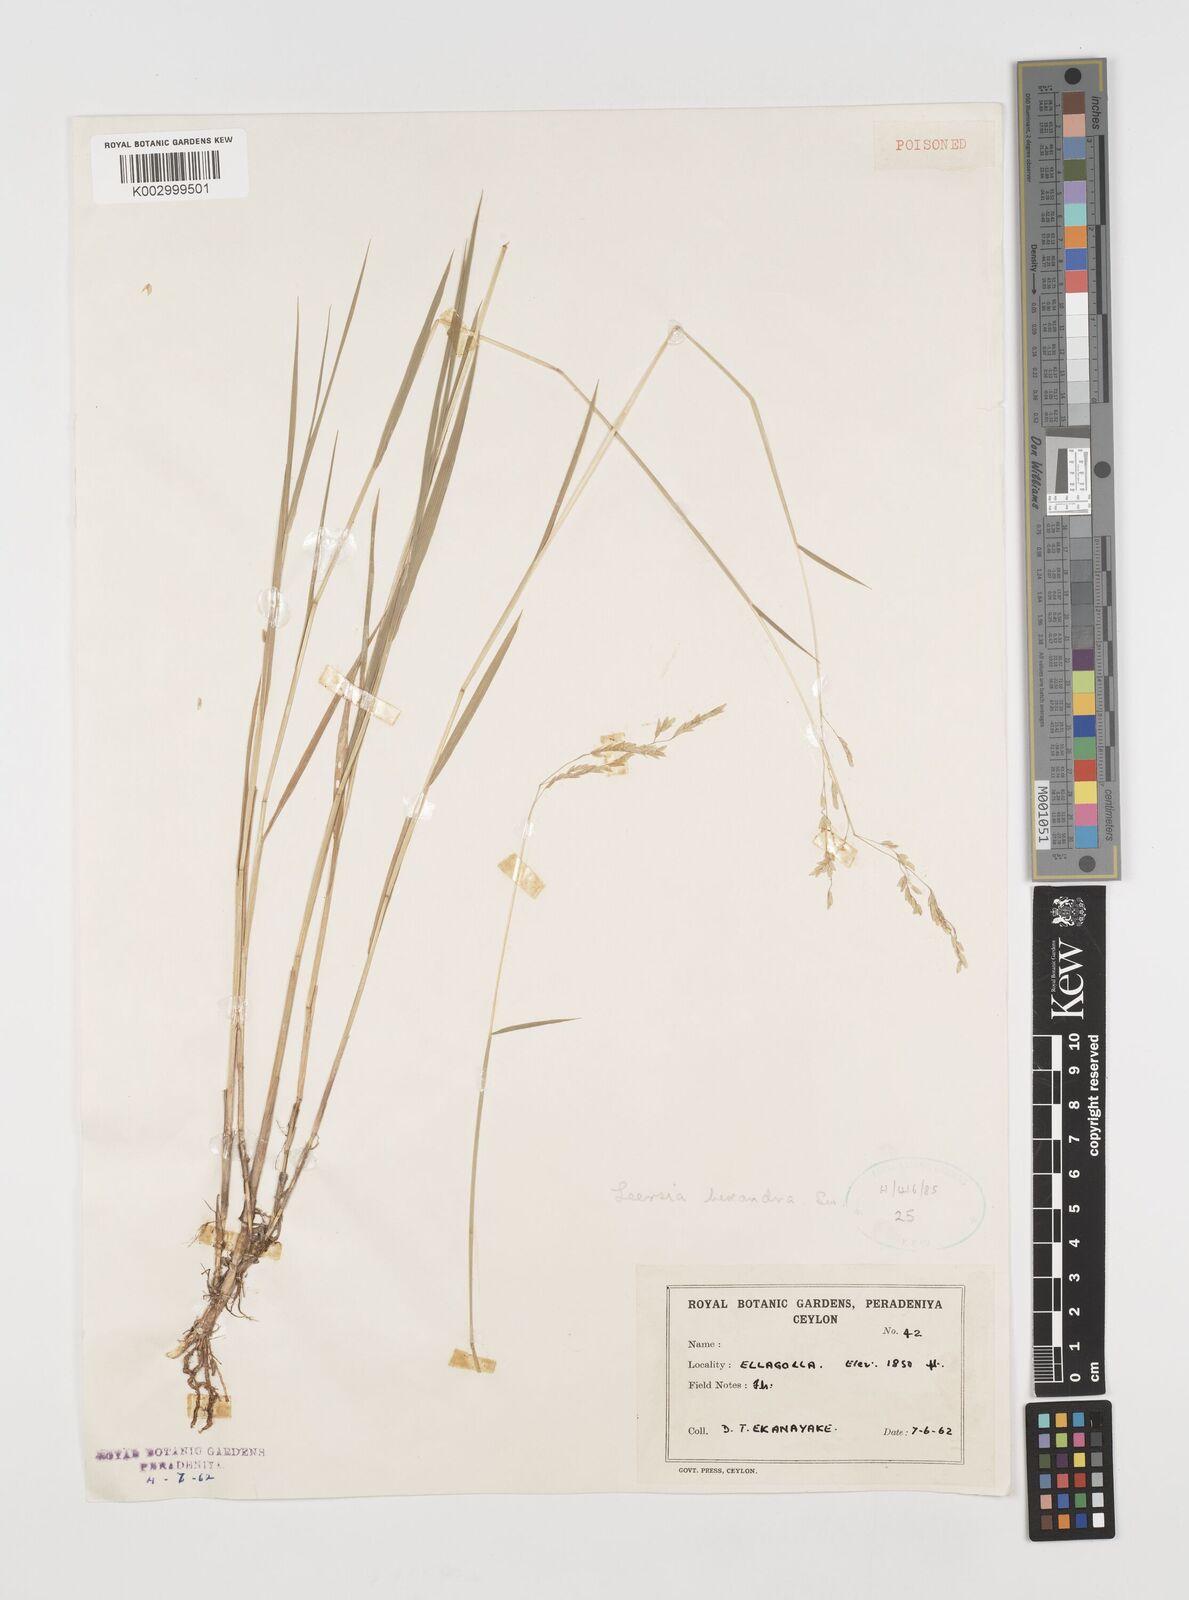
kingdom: Plantae
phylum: Tracheophyta
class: Liliopsida
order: Poales
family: Poaceae
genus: Leersia
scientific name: Leersia hexandra
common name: Southern cut grass
